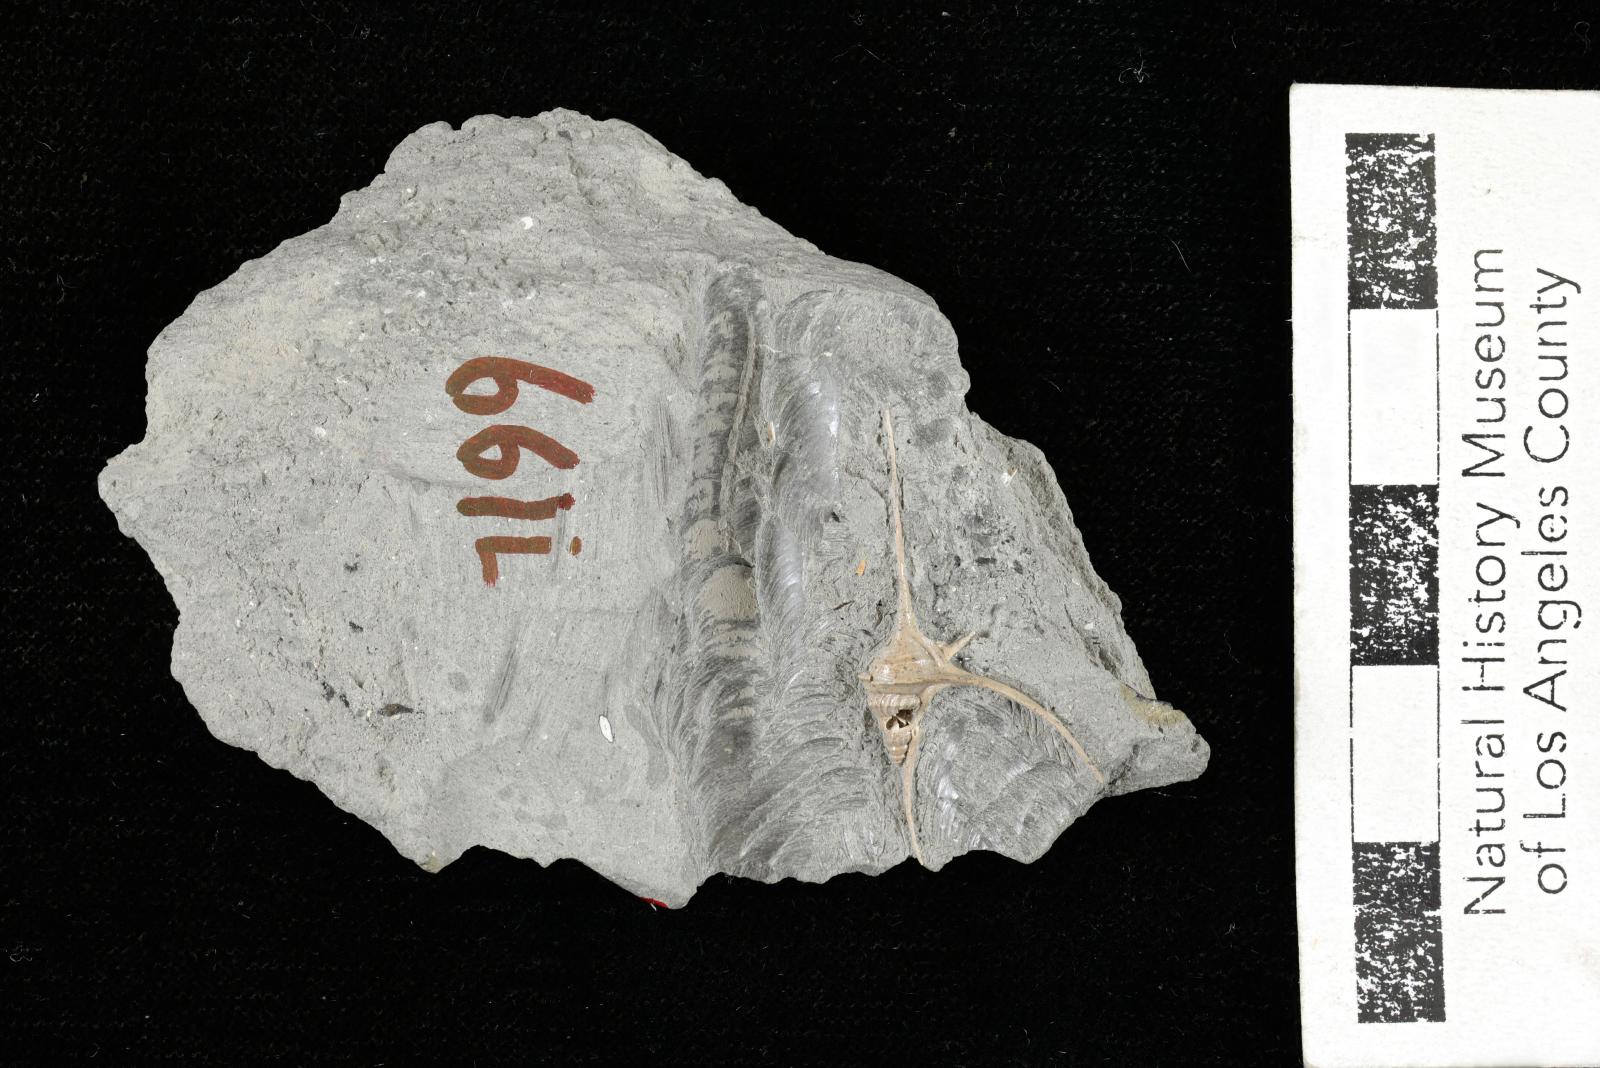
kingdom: Animalia
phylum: Mollusca
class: Gastropoda
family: Turritellidae
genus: Turritella
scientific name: Turritella chicoensis
